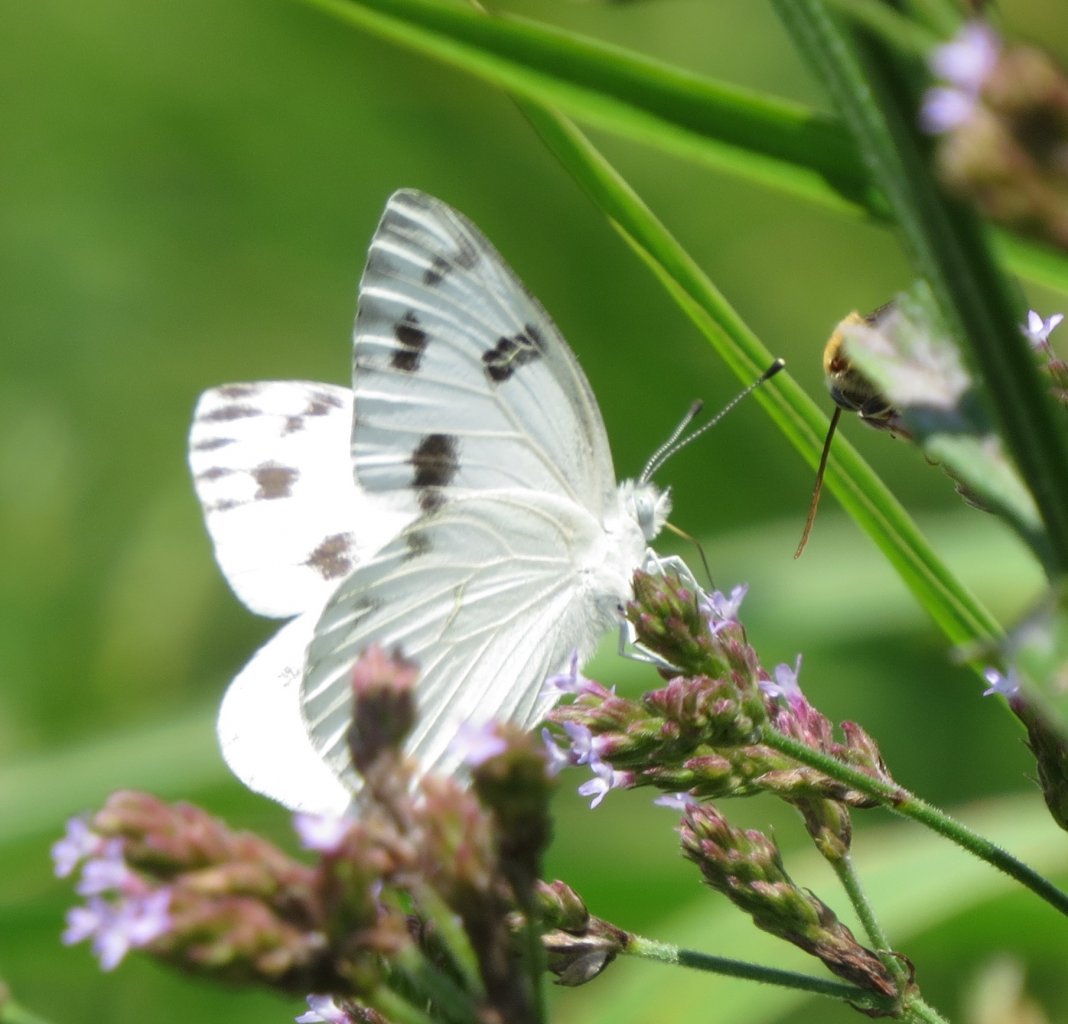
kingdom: Animalia
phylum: Arthropoda
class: Insecta
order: Lepidoptera
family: Pieridae
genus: Pontia
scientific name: Pontia protodice
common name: Checkered White
